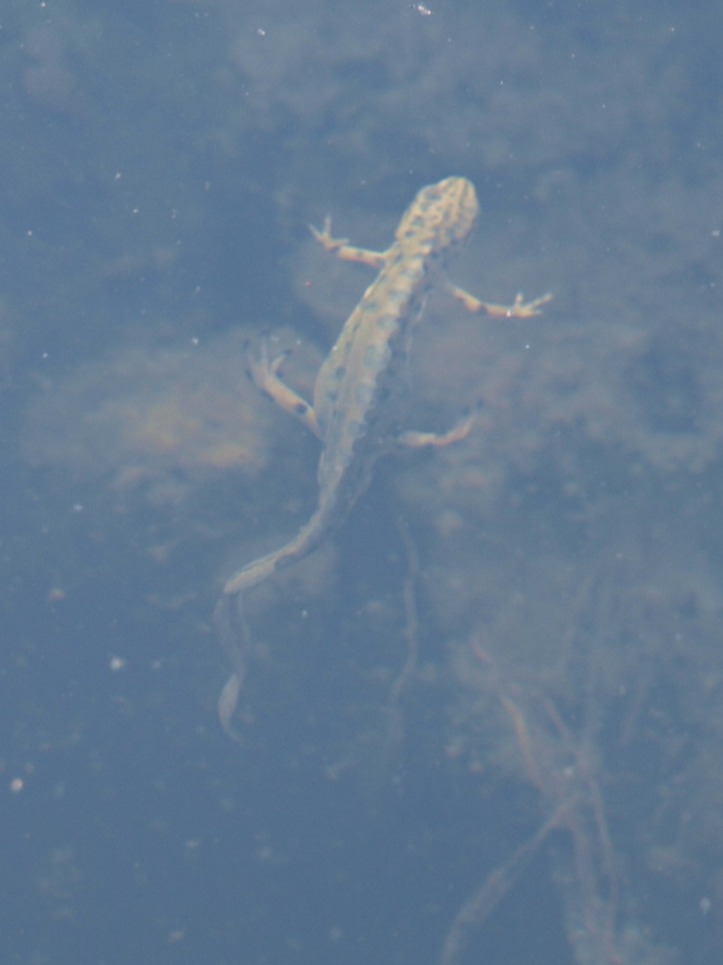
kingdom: Animalia
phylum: Chordata
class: Amphibia
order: Caudata
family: Salamandridae
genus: Lissotriton
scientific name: Lissotriton vulgaris
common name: Lille vandsalamander
